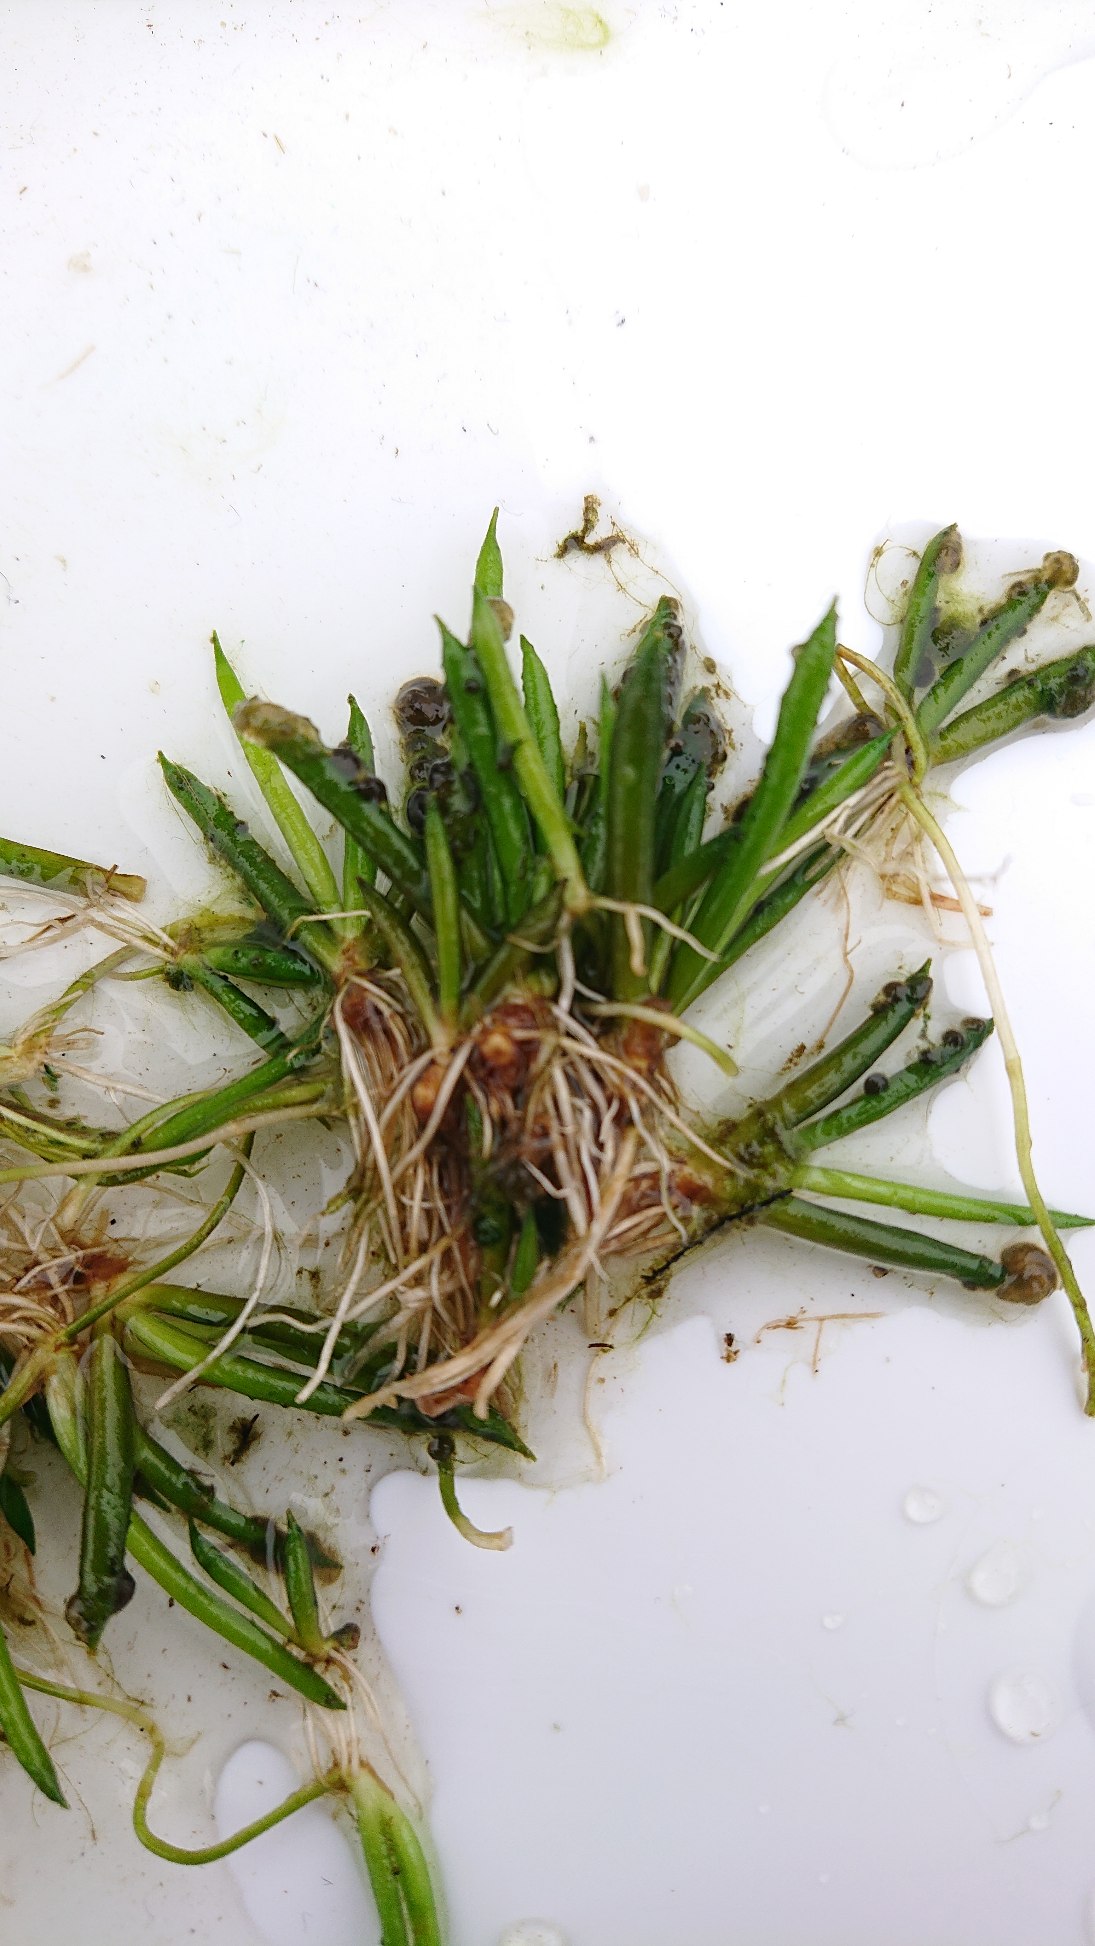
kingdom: Plantae
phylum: Tracheophyta
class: Magnoliopsida
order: Lamiales
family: Plantaginaceae
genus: Littorella
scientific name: Littorella uniflora
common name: Strandbo
